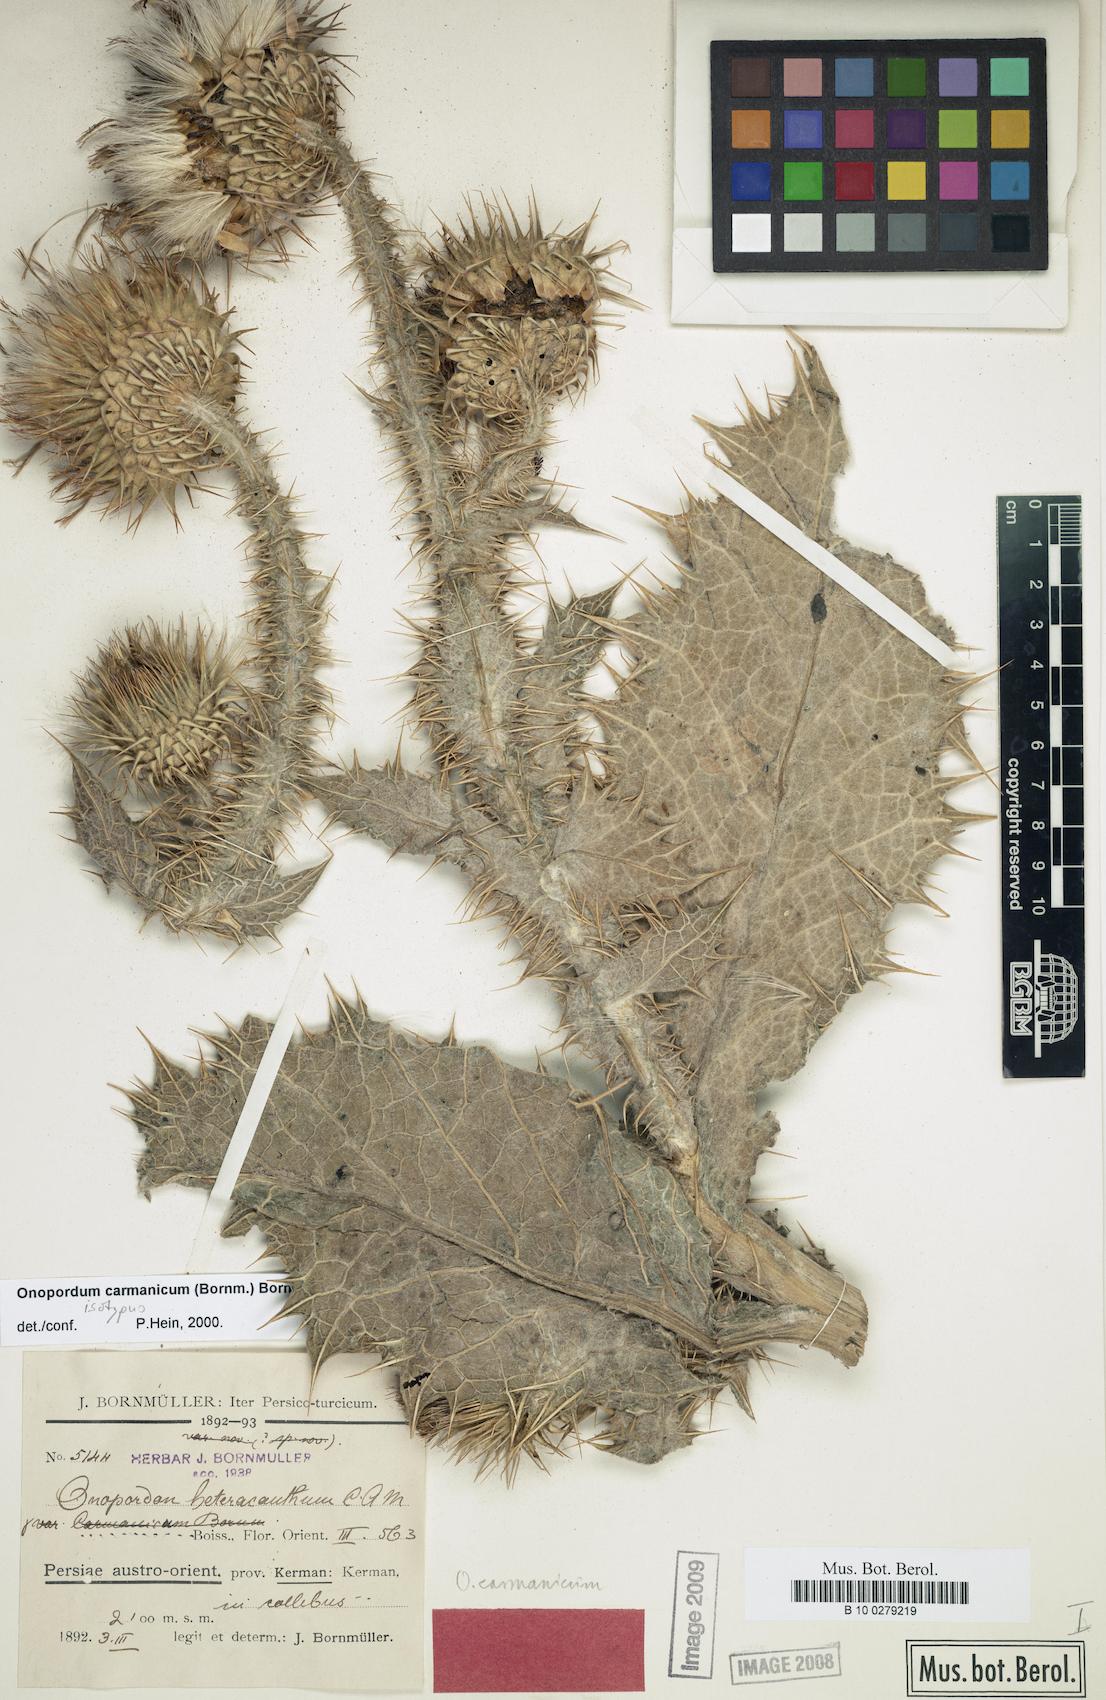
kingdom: Plantae
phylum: Tracheophyta
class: Magnoliopsida
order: Asterales
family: Asteraceae
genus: Onopordum
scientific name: Onopordum carmanicum
